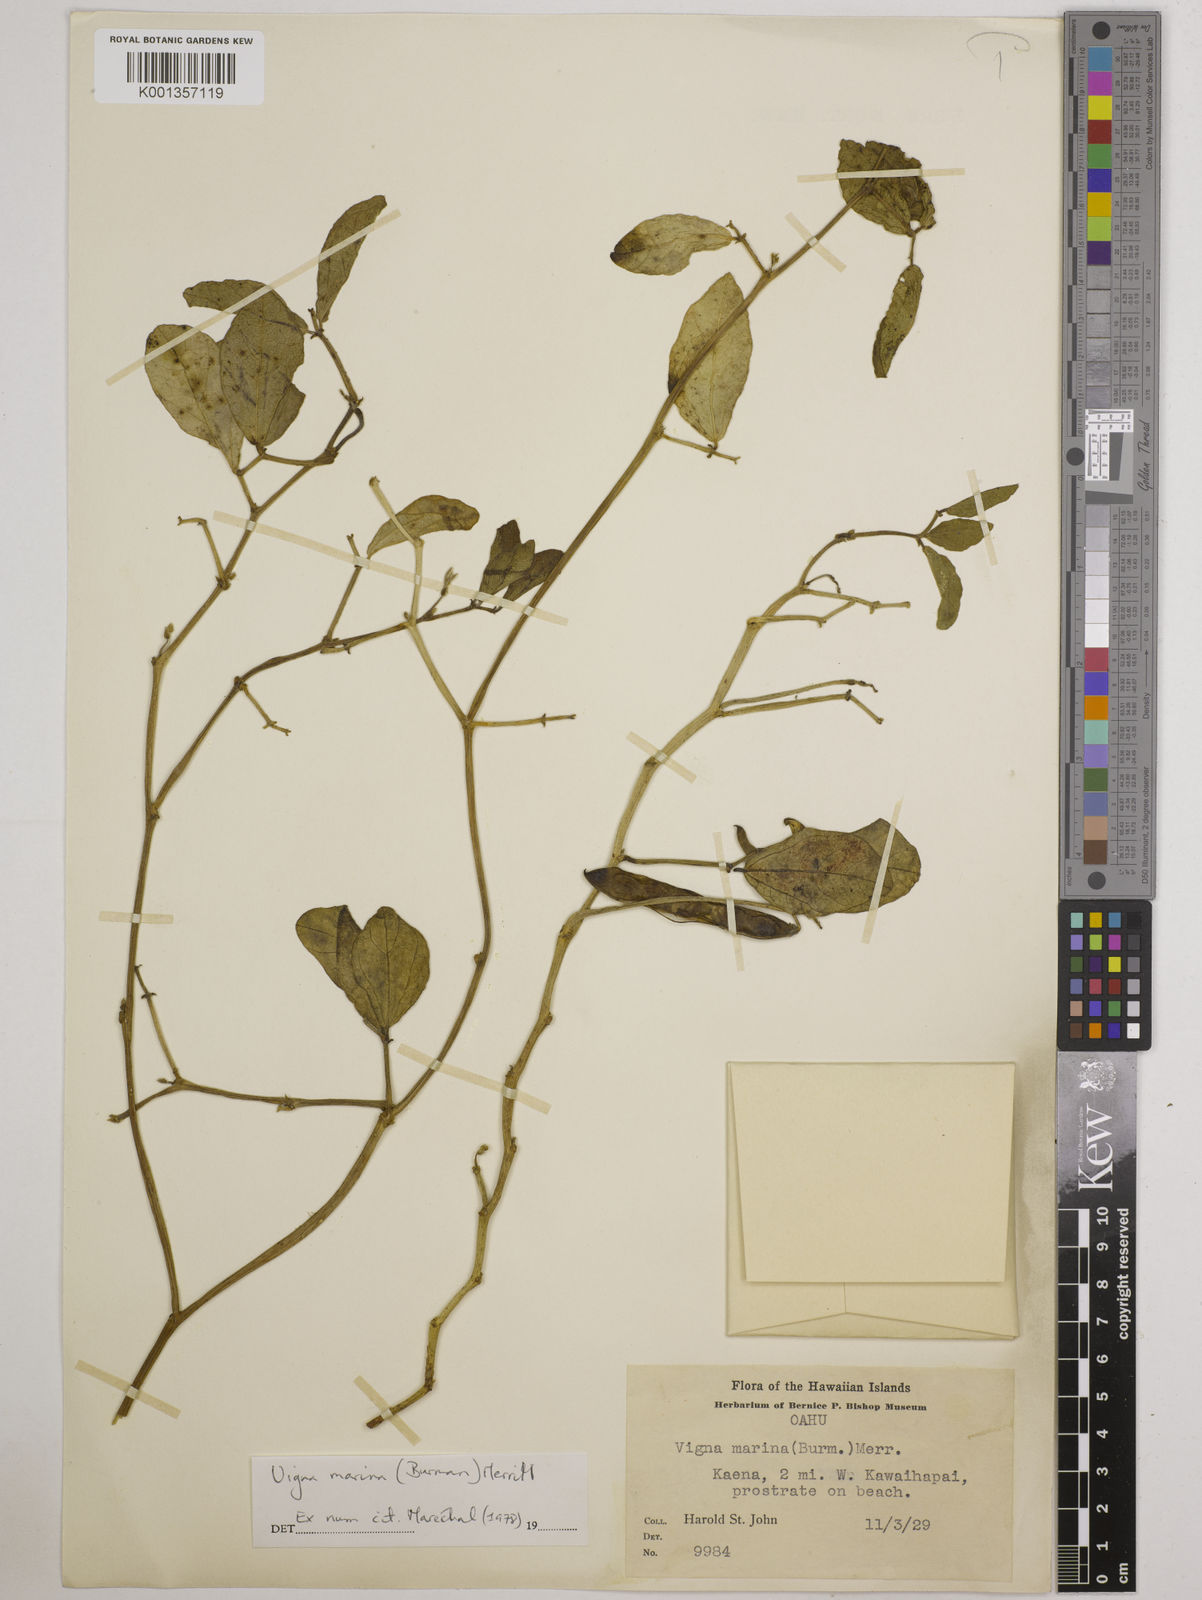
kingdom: Plantae
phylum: Tracheophyta
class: Magnoliopsida
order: Fabales
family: Fabaceae
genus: Vigna
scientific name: Vigna marina
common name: Dune-bean
